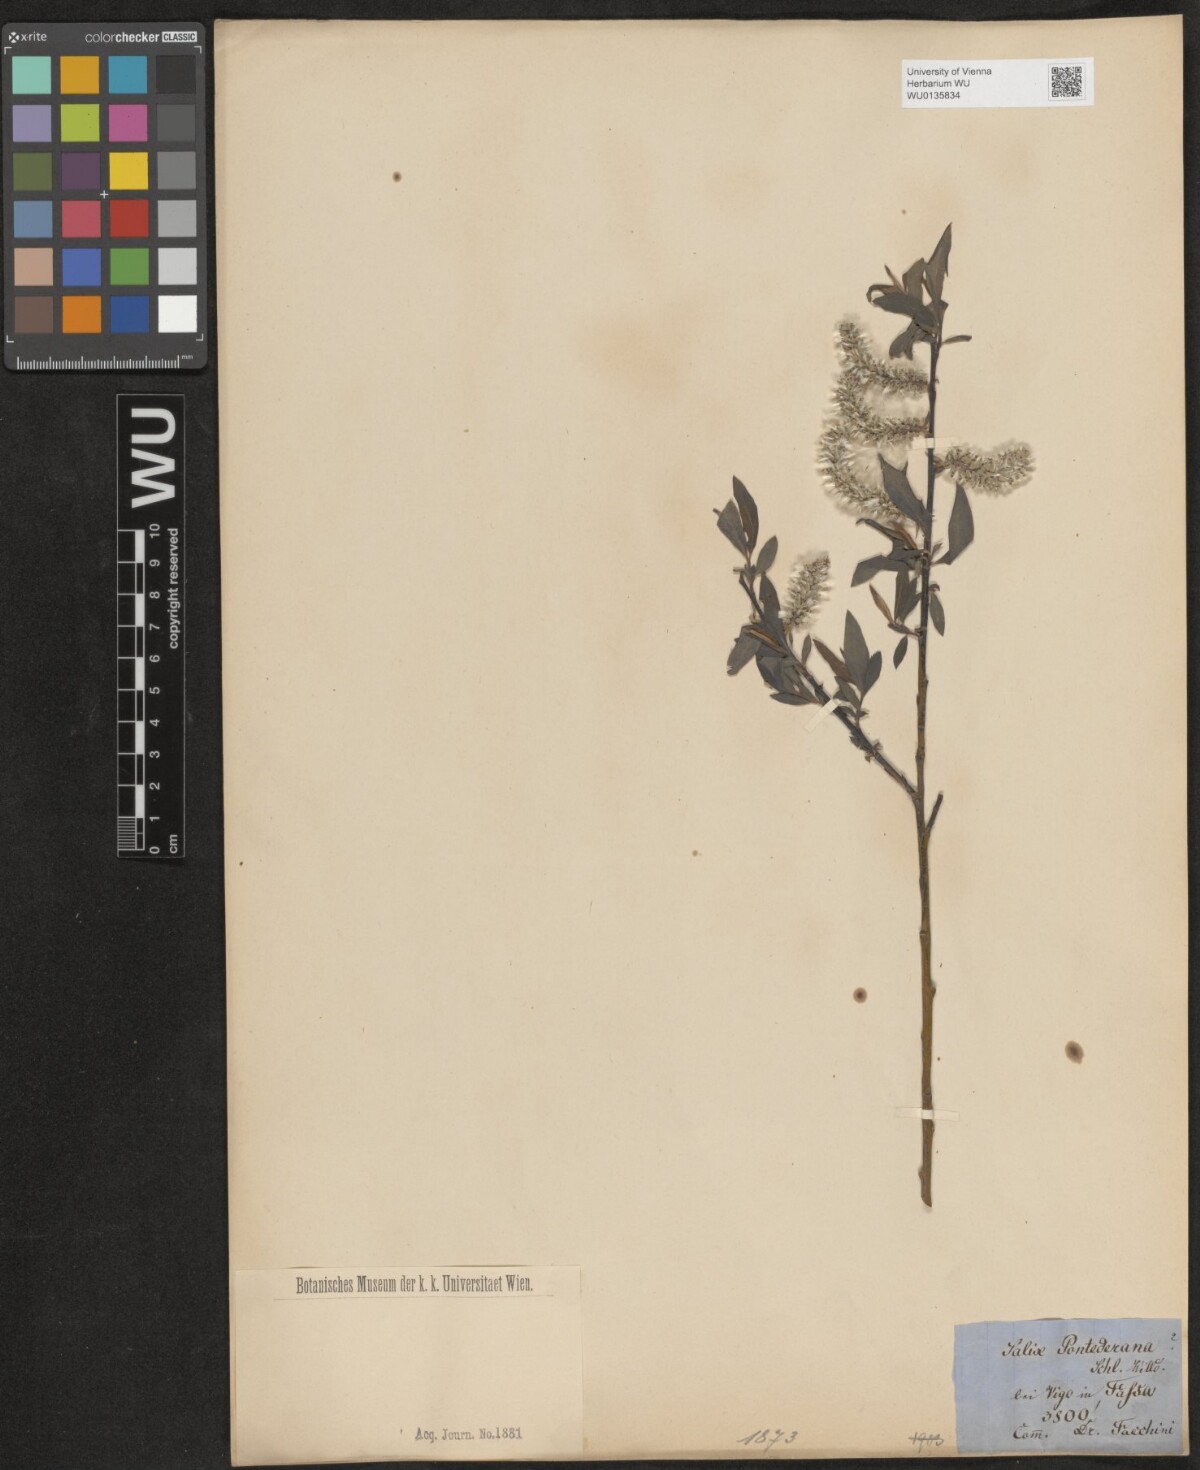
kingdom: Plantae
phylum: Tracheophyta
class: Magnoliopsida
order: Malpighiales
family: Salicaceae
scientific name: Salicaceae
